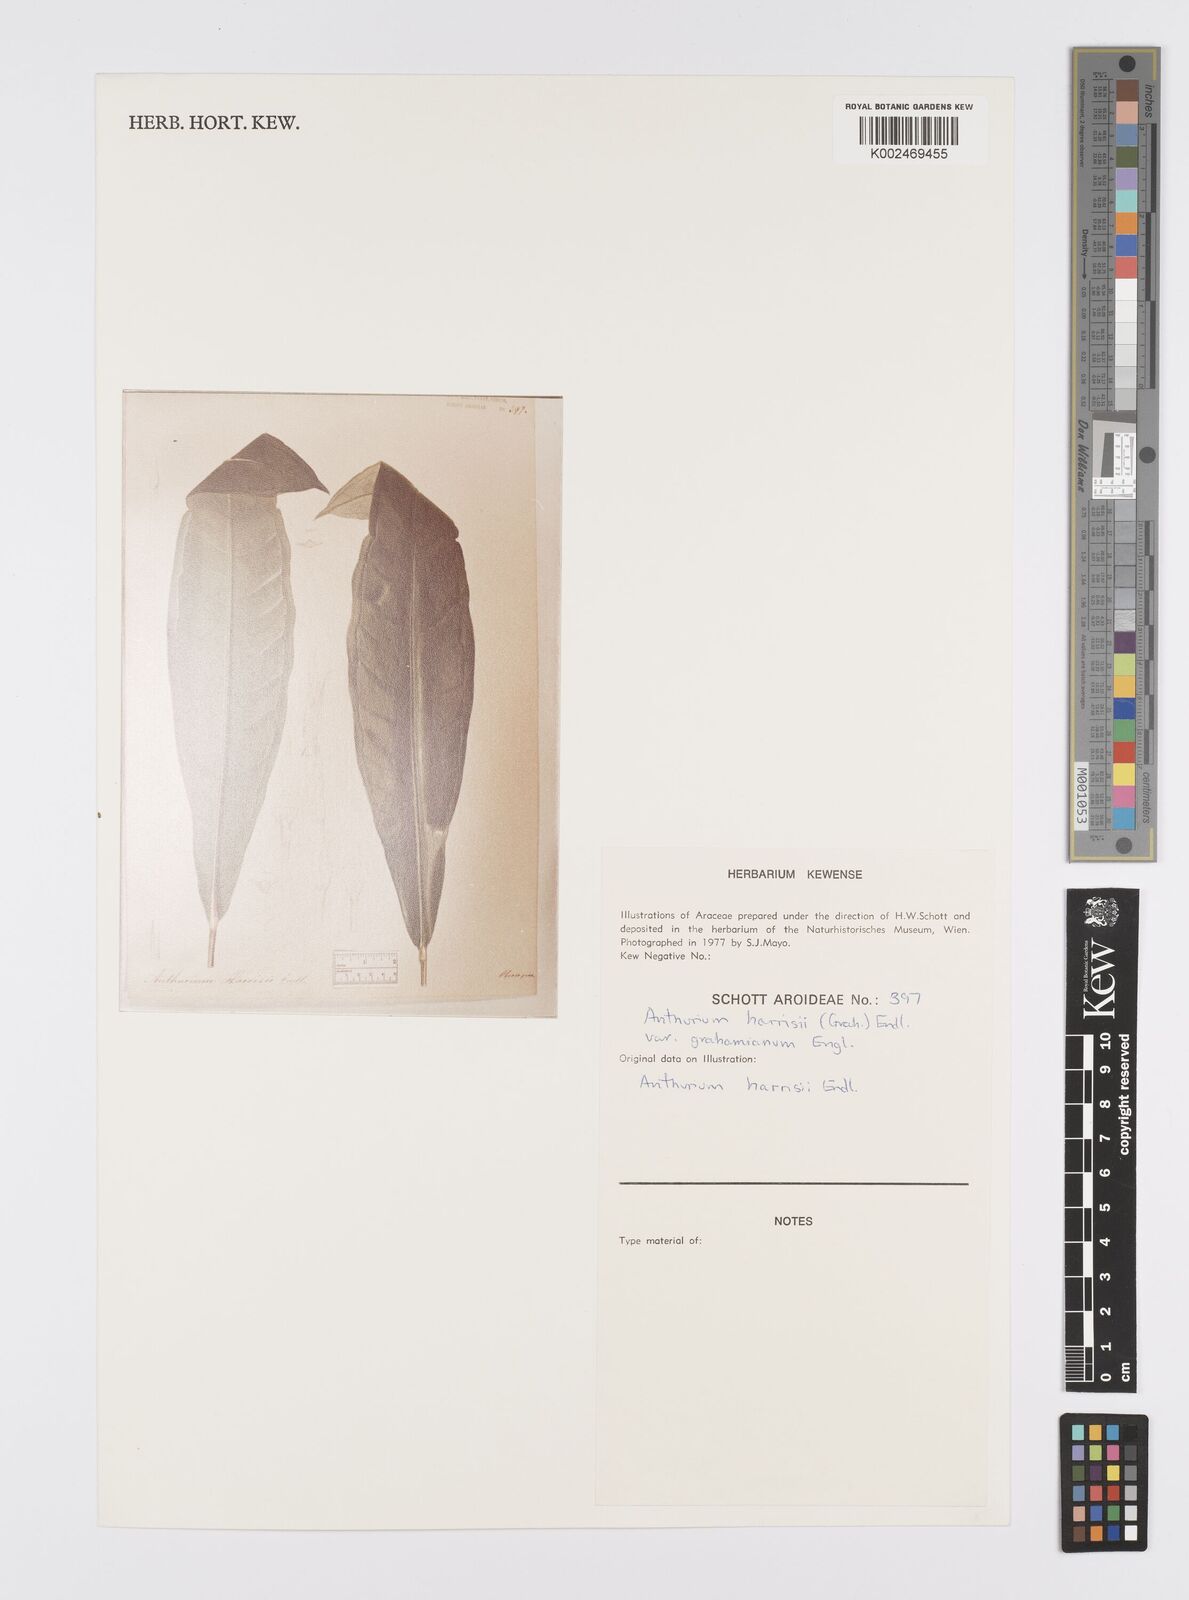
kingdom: Plantae
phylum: Tracheophyta
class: Liliopsida
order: Alismatales
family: Araceae
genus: Anthurium
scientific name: Anthurium harrisii
